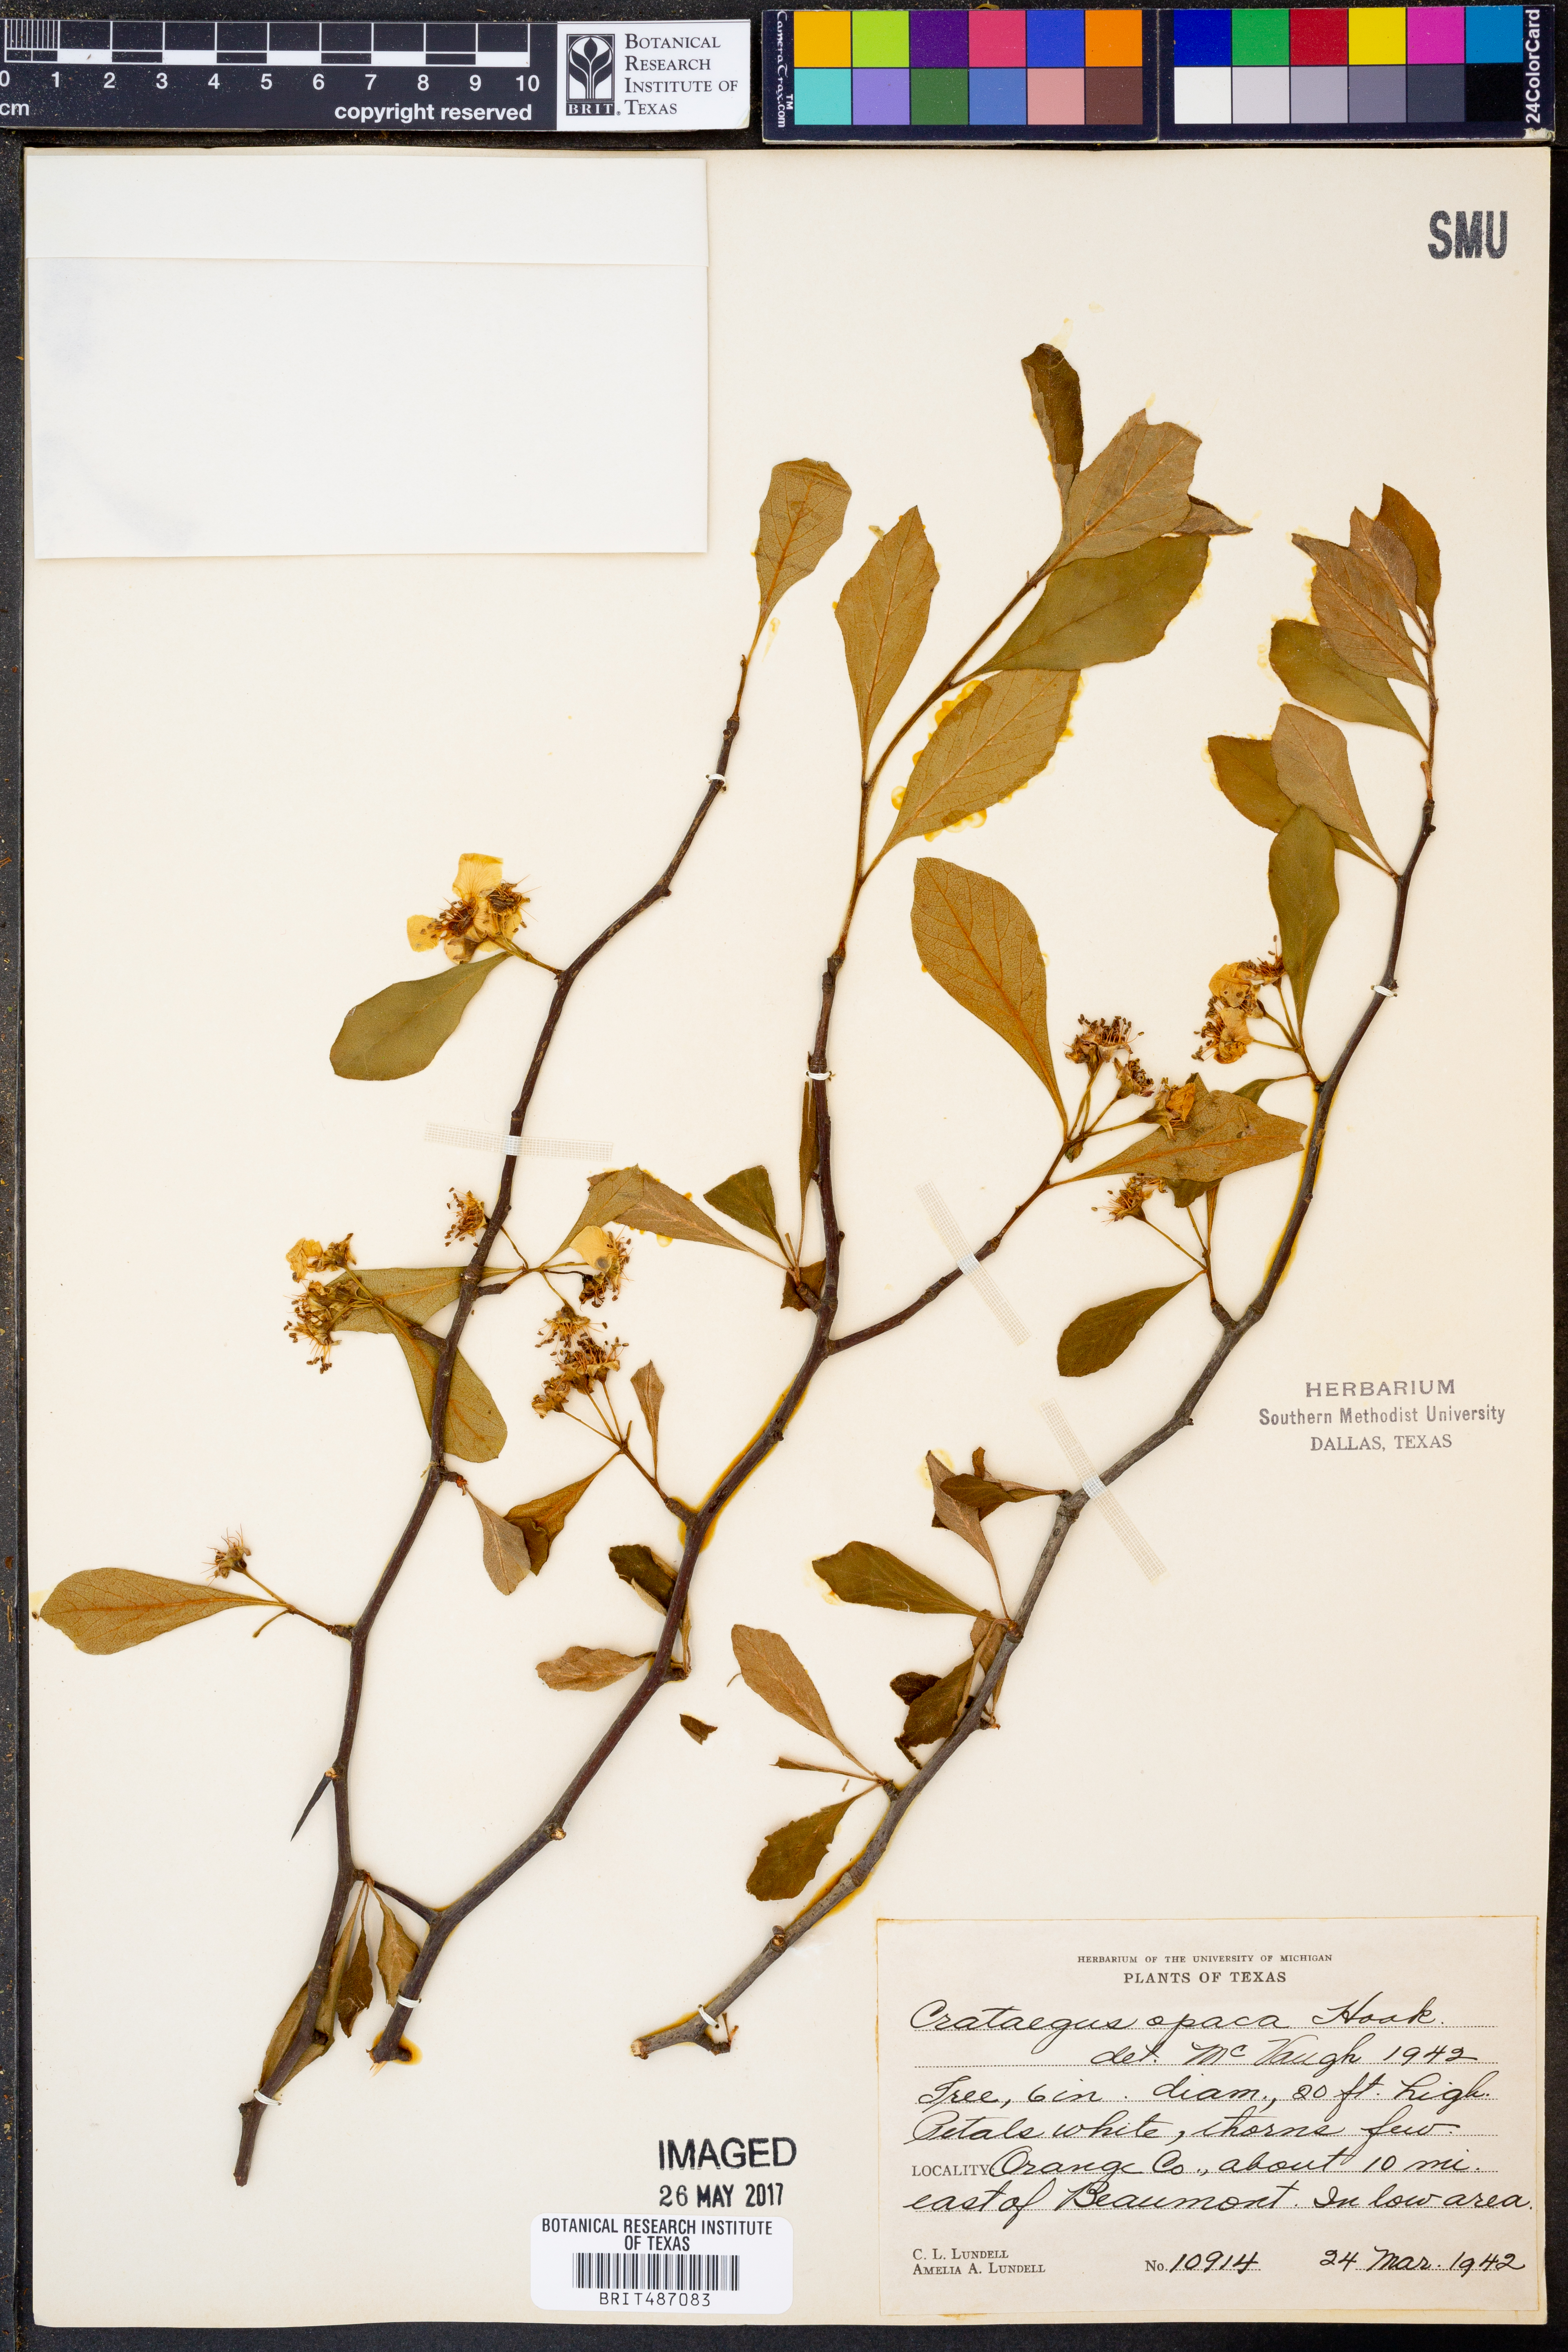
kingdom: Plantae
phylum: Tracheophyta
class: Magnoliopsida
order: Rosales
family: Rosaceae
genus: Crataegus
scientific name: Crataegus opaca
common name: Apple haw
